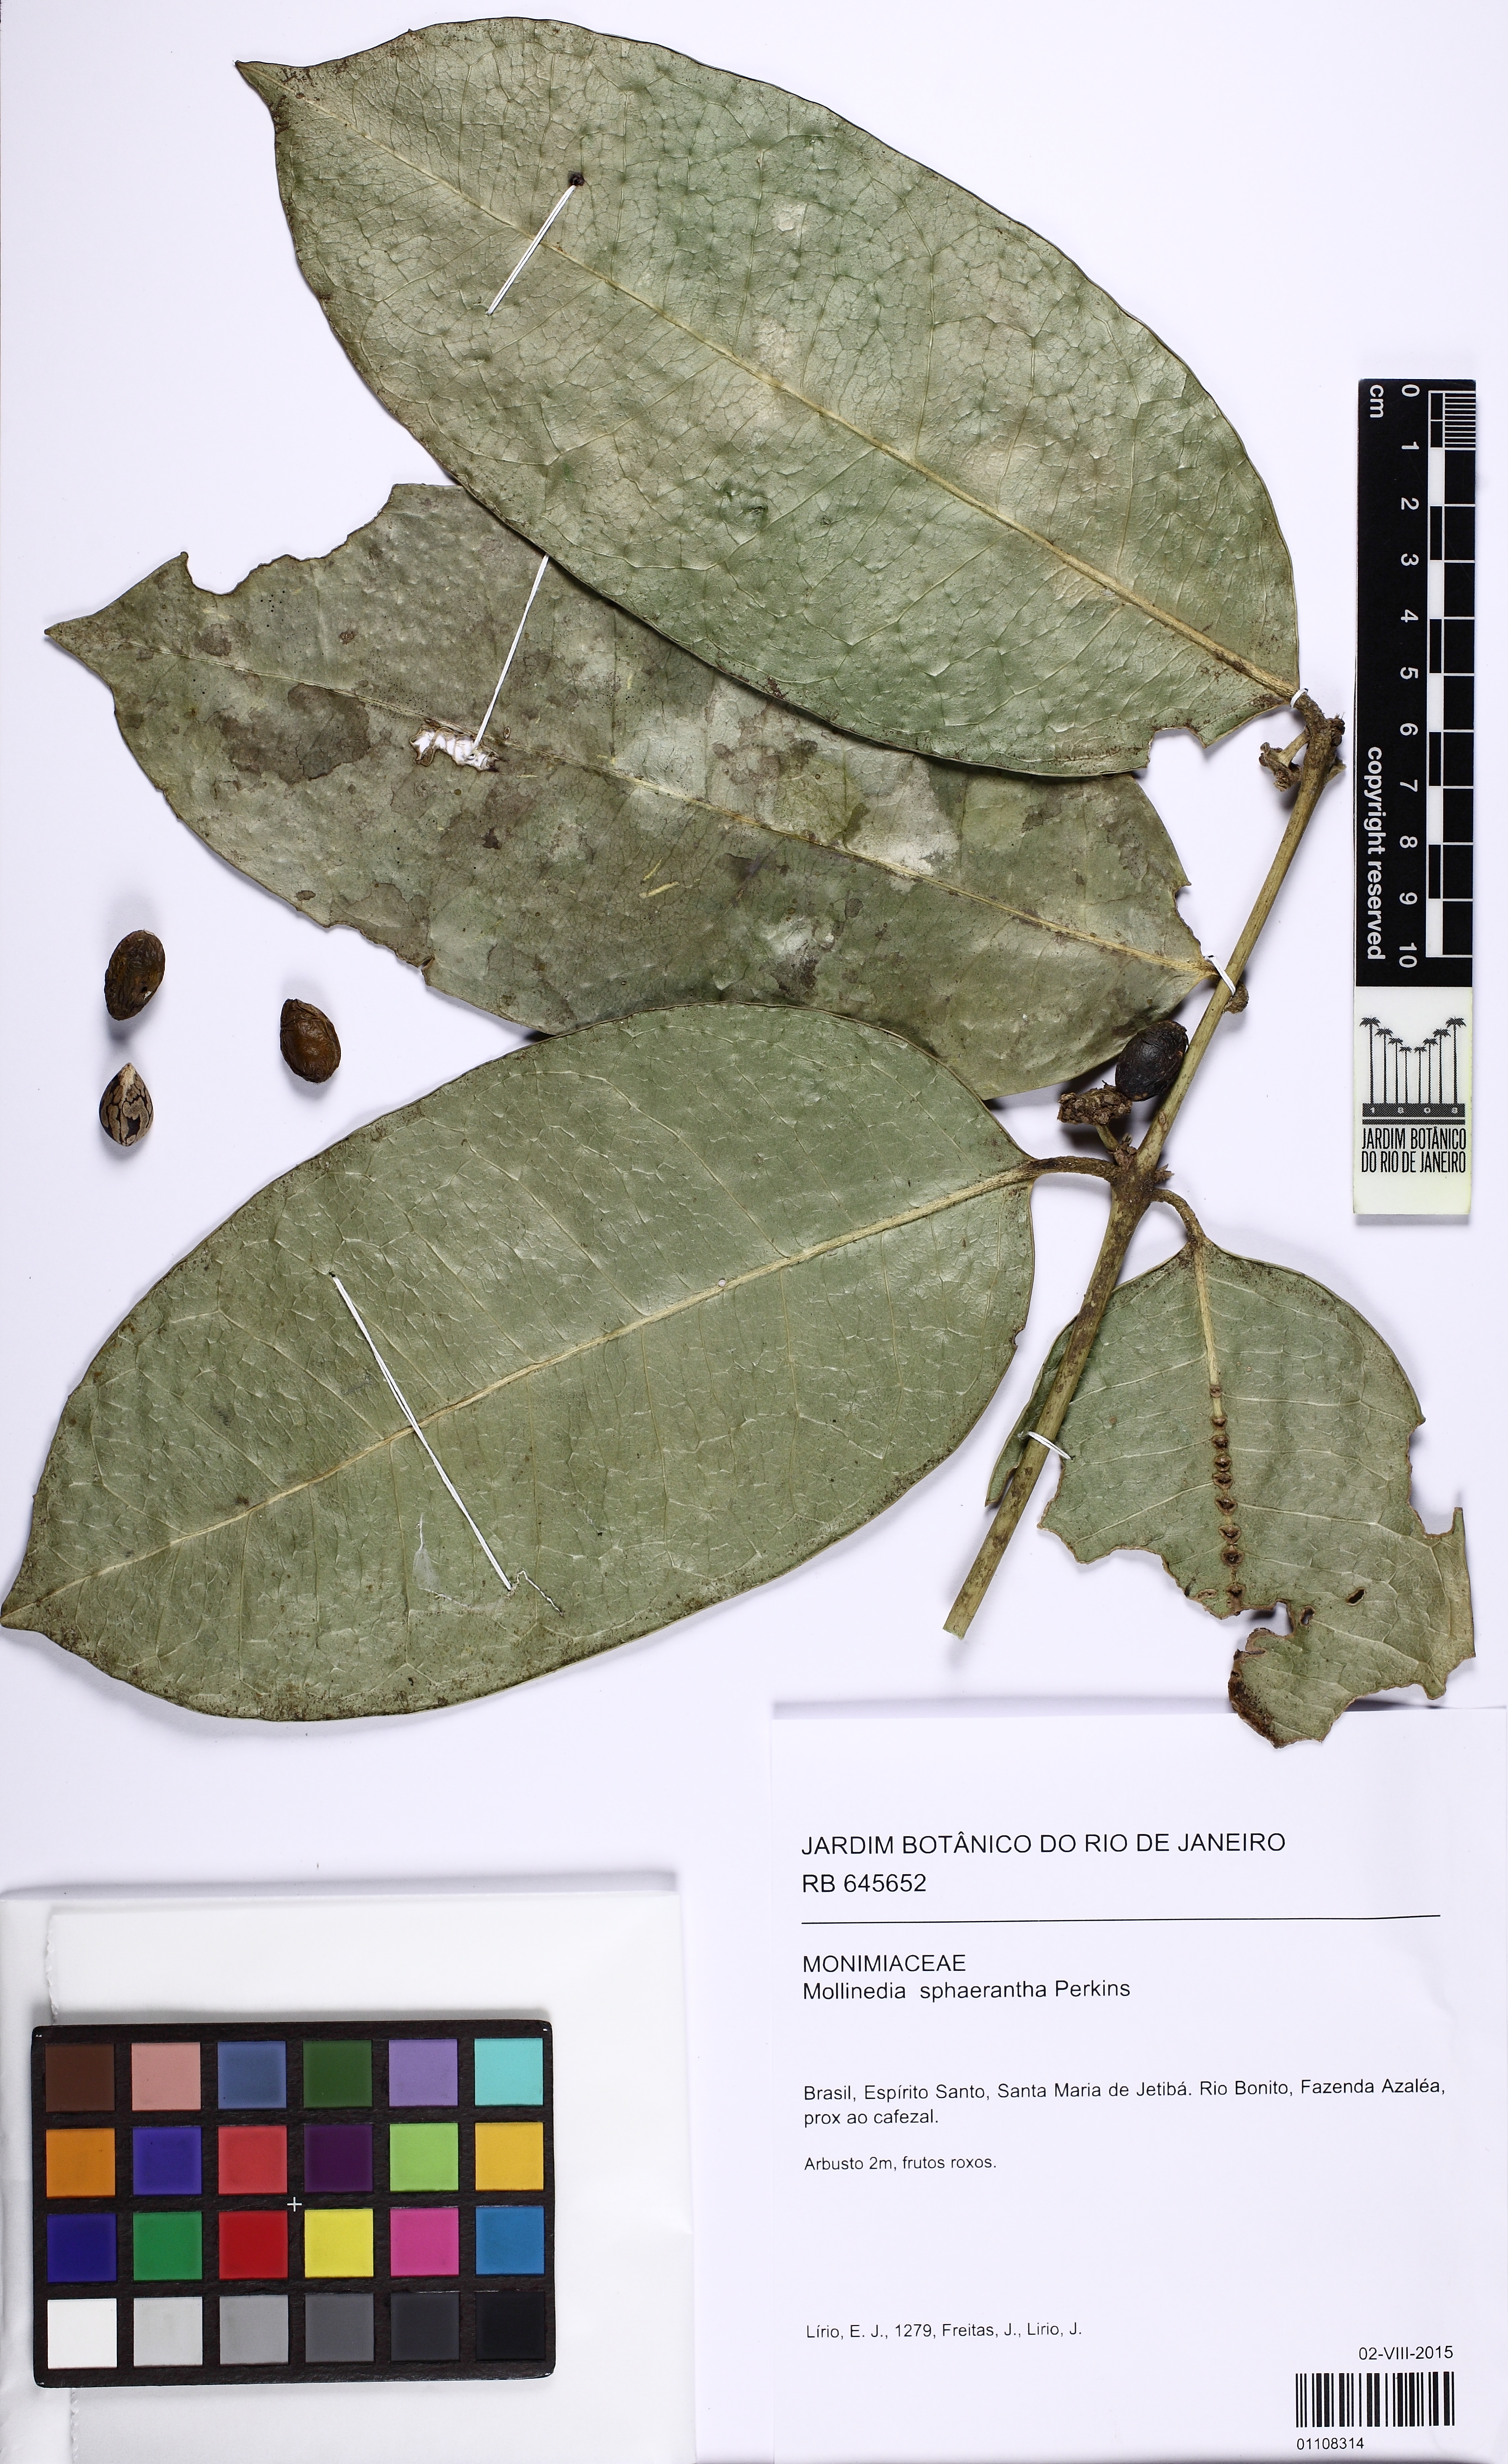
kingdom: Plantae
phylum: Tracheophyta
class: Magnoliopsida
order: Laurales
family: Monimiaceae
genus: Mollinedia
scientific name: Mollinedia glabra
